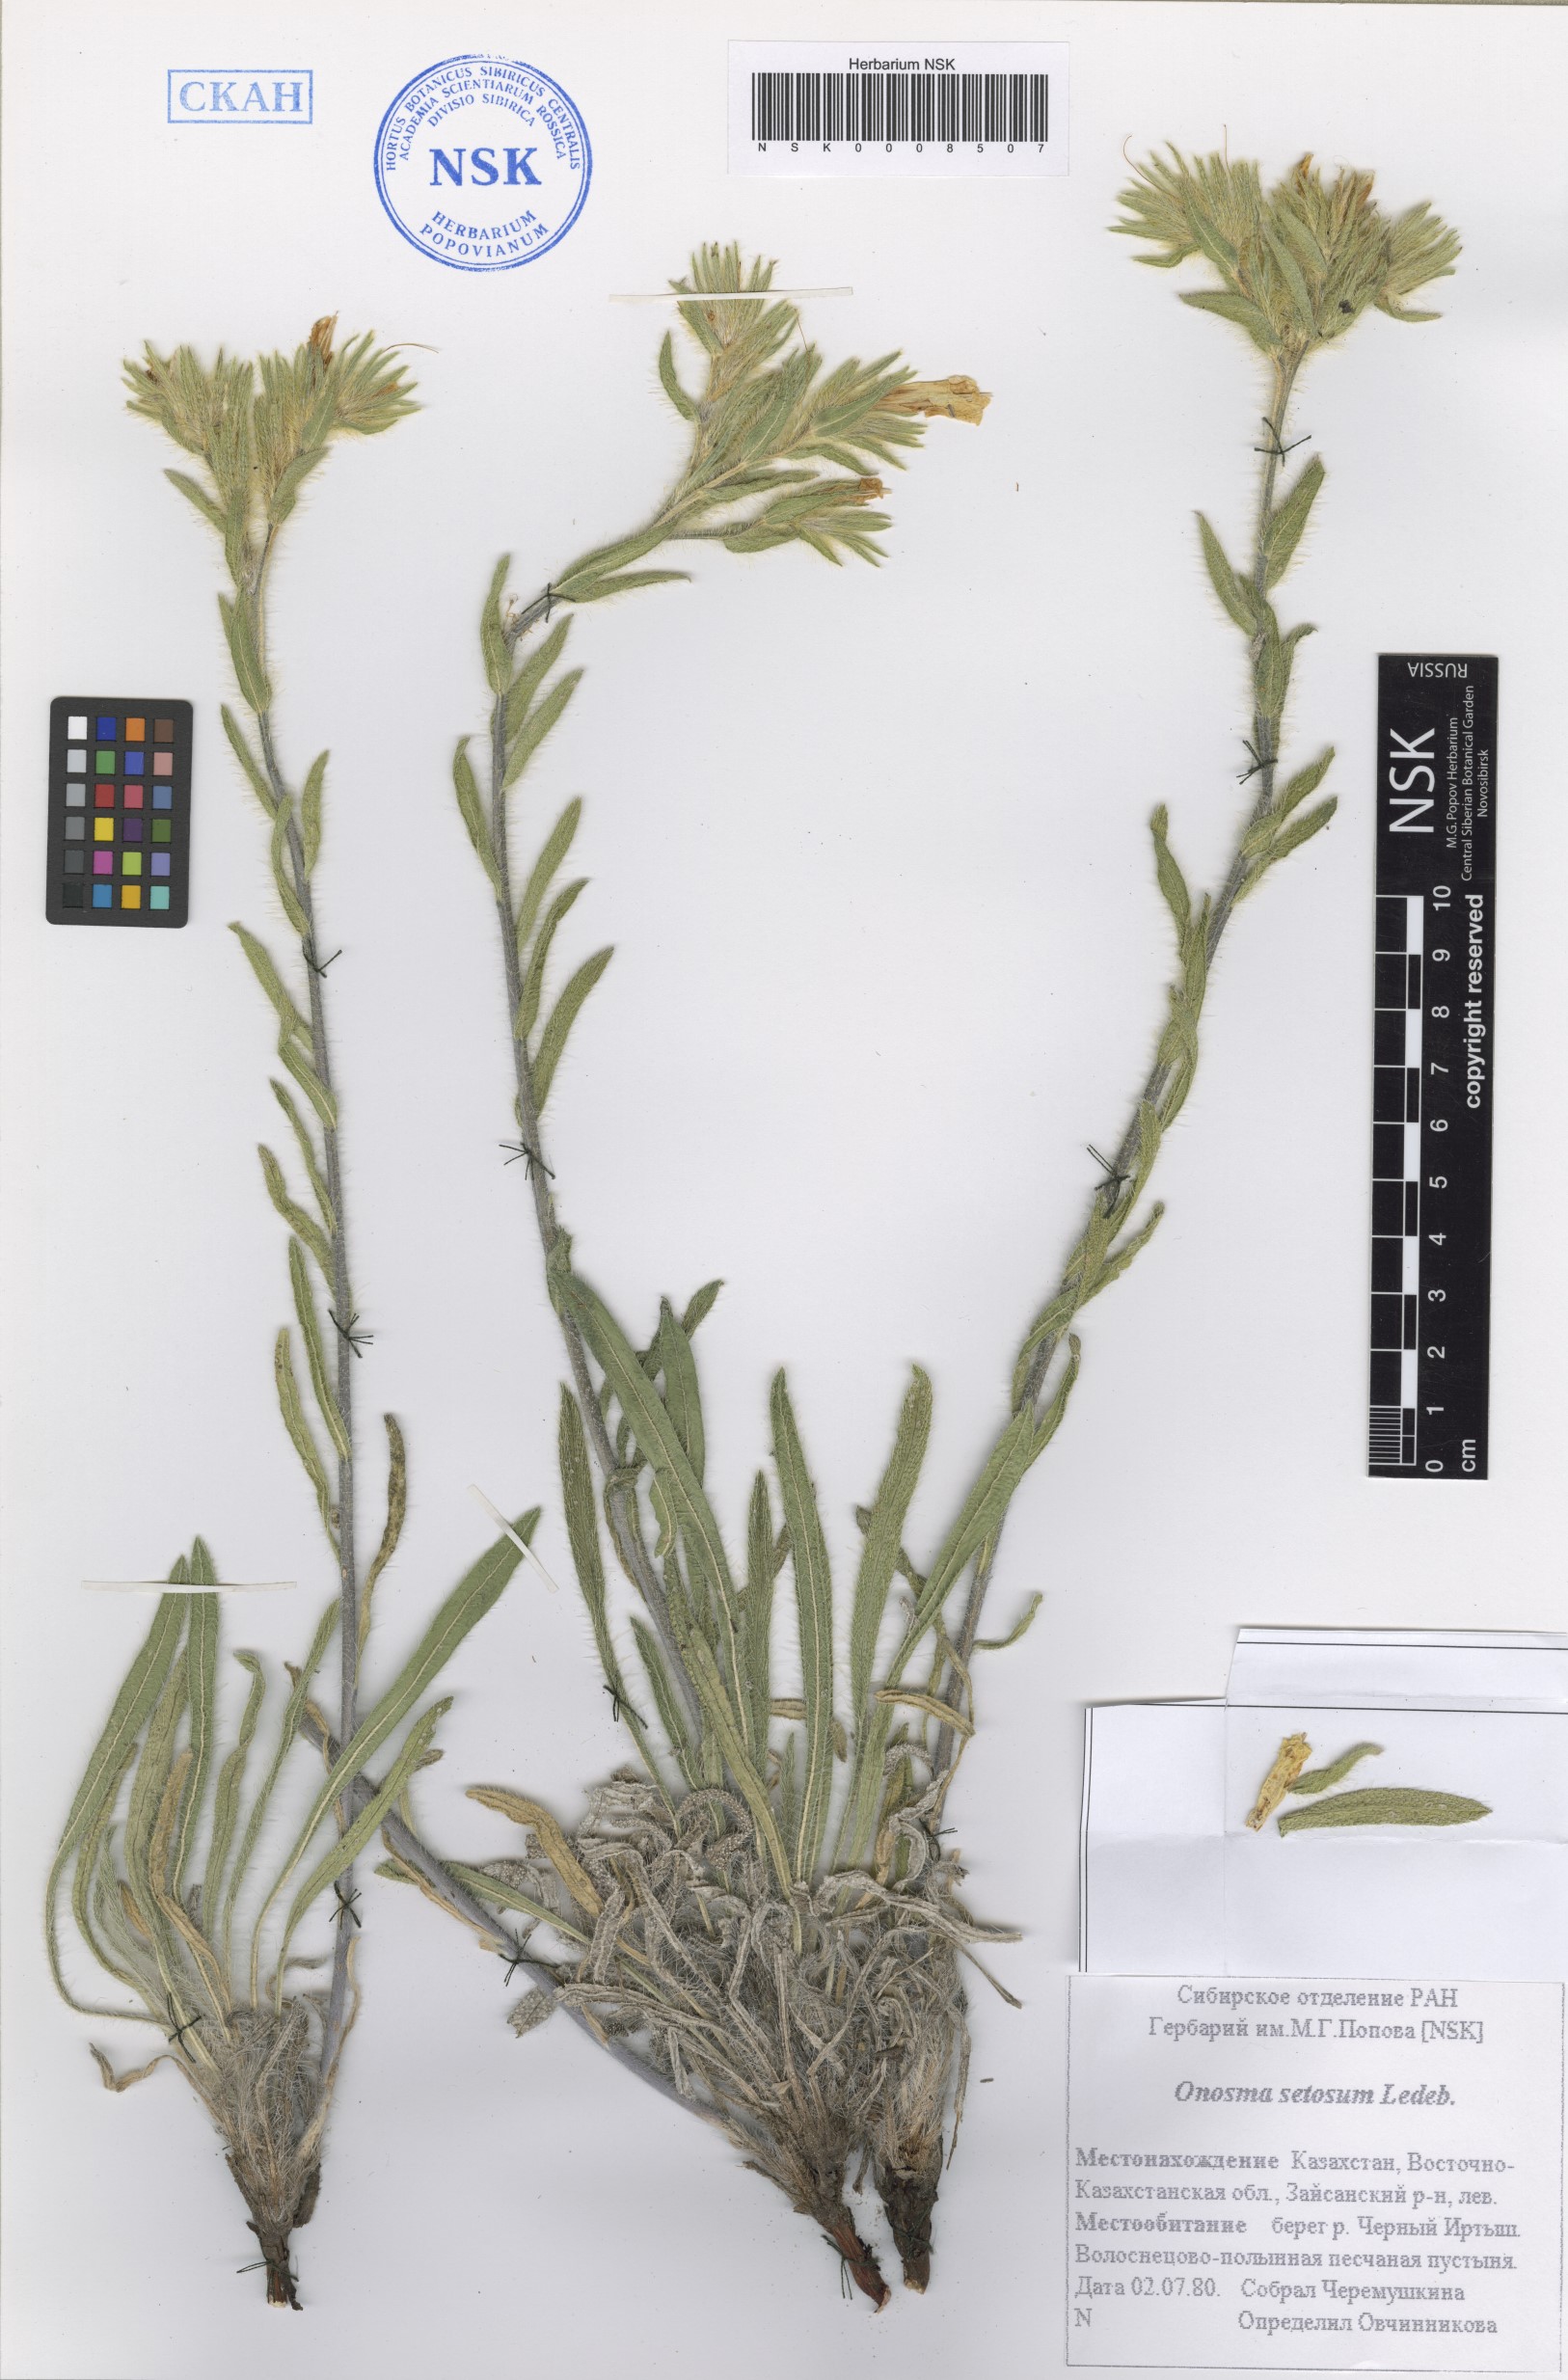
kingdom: Plantae
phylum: Tracheophyta
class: Magnoliopsida
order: Boraginales
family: Boraginaceae
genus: Onosma
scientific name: Onosma setosa
